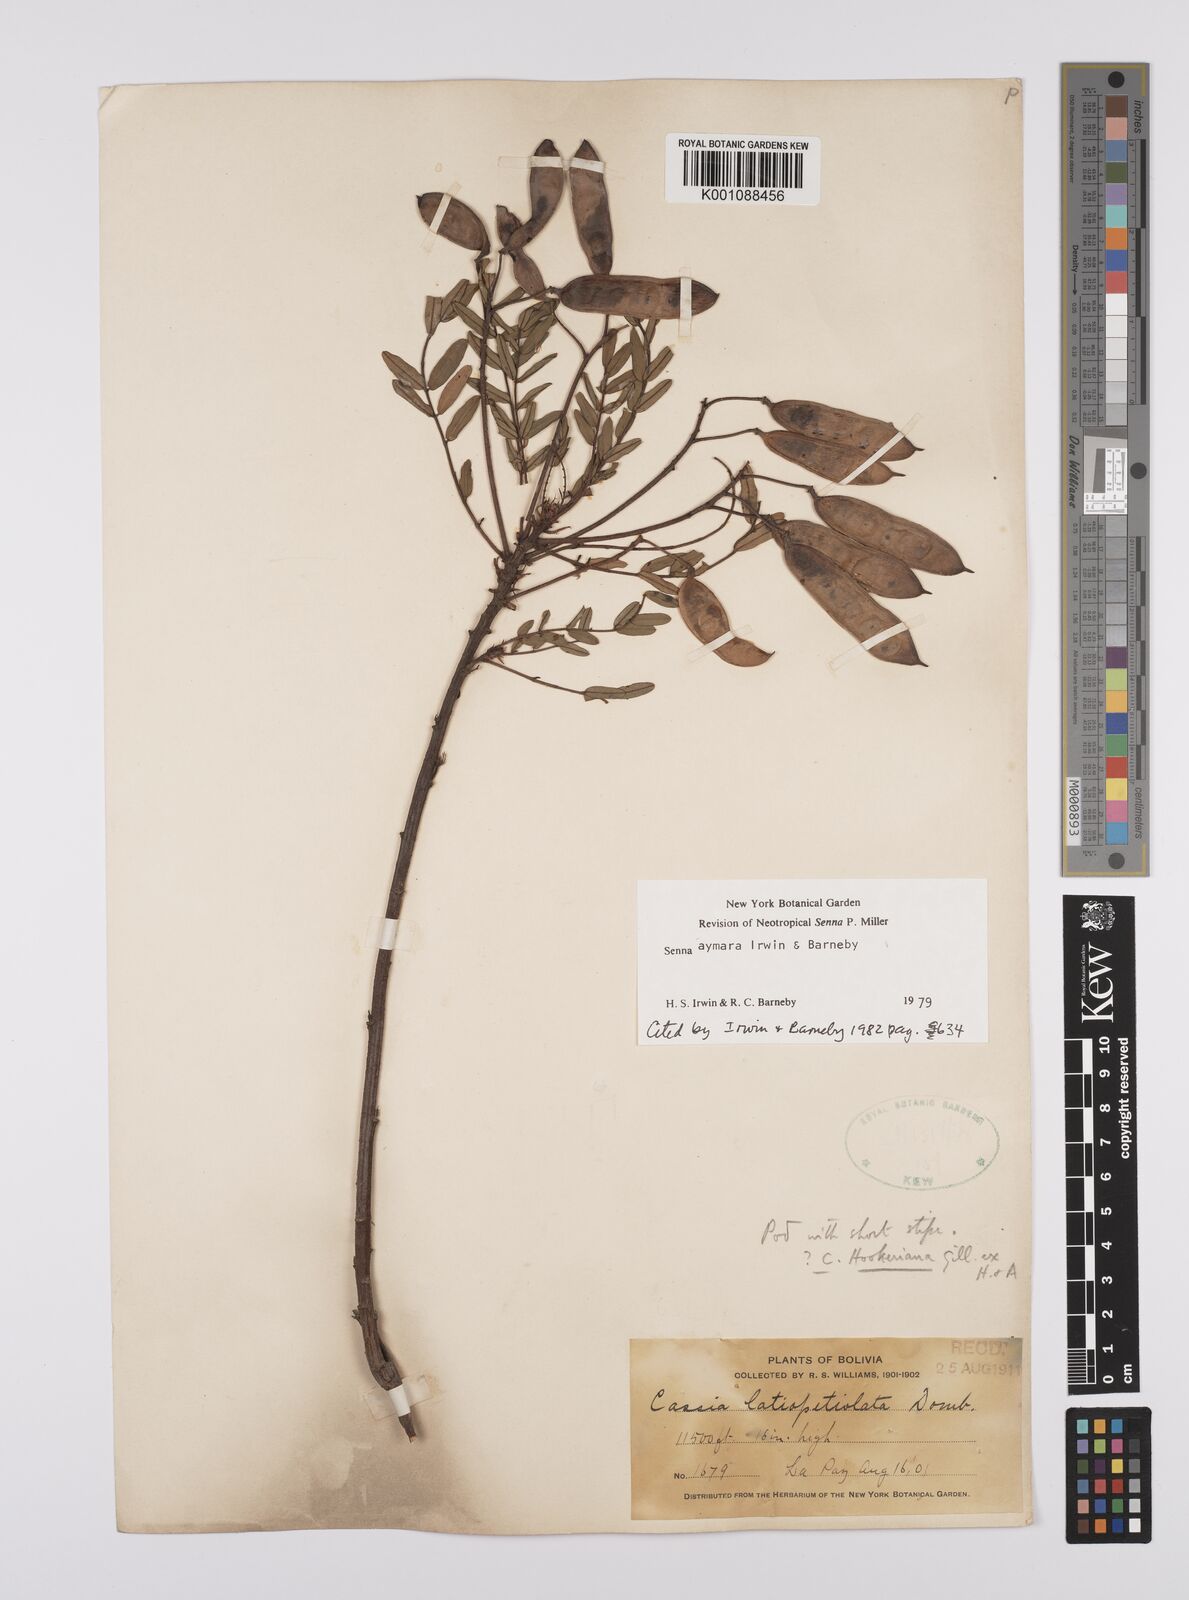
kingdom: Plantae
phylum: Tracheophyta
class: Magnoliopsida
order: Fabales
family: Fabaceae
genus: Senna
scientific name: Senna aymara
